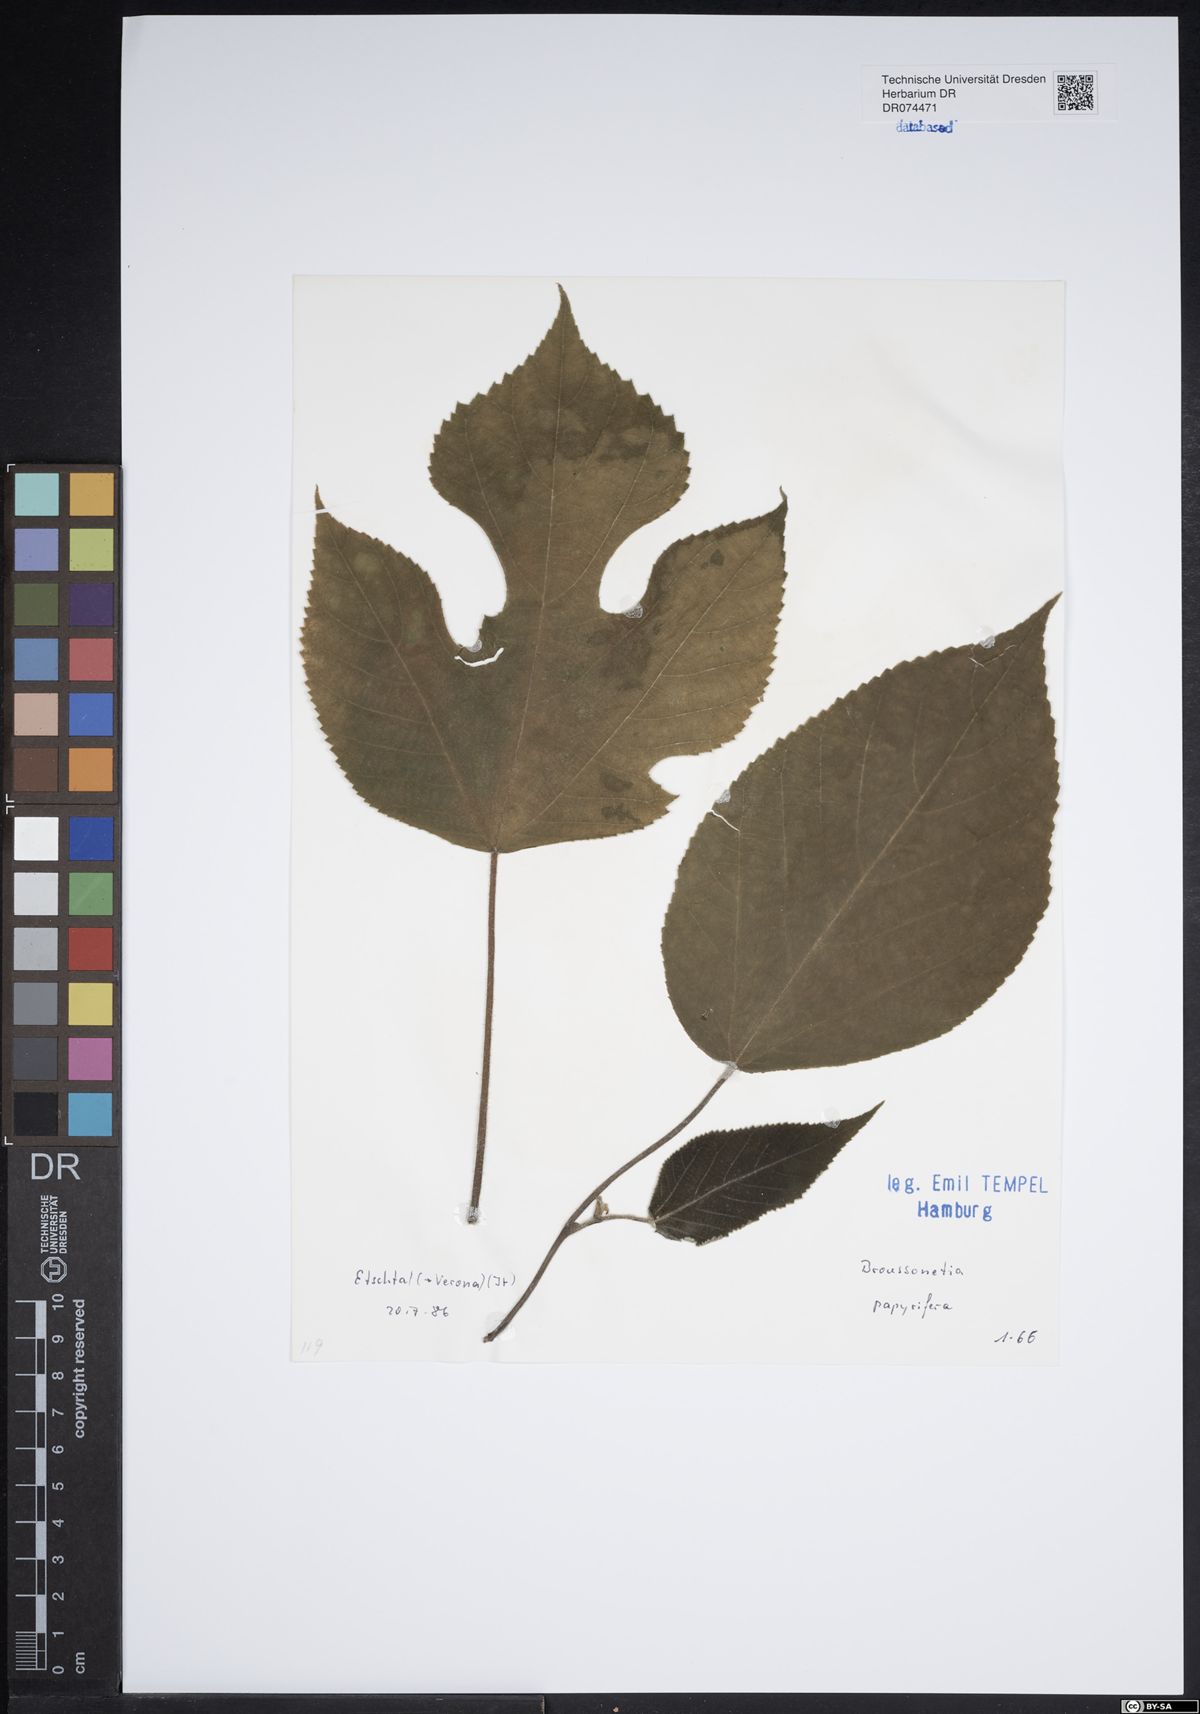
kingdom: Plantae
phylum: Tracheophyta
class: Magnoliopsida
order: Rosales
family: Moraceae
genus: Broussonetia
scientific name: Broussonetia papyrifera
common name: Paper mulberry
